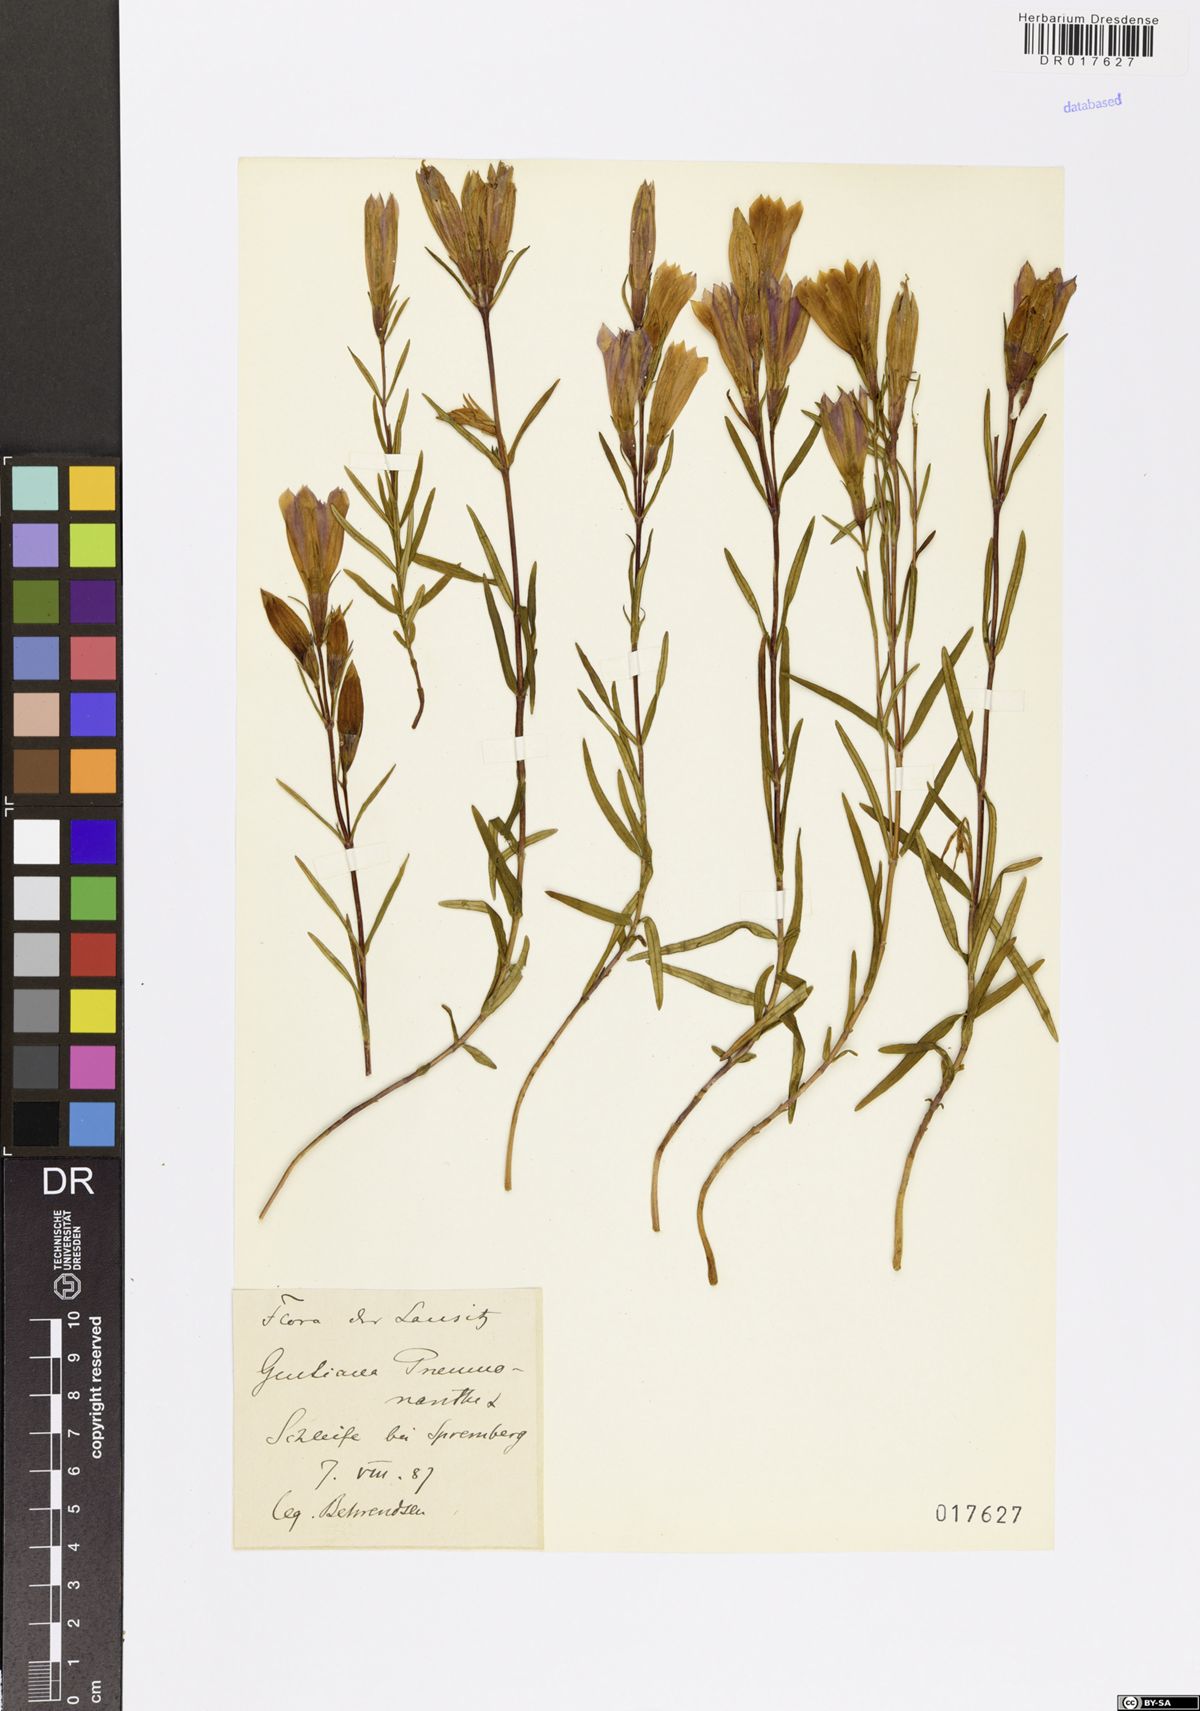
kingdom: Plantae
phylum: Tracheophyta
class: Magnoliopsida
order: Gentianales
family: Gentianaceae
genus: Gentiana
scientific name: Gentiana pneumonanthe
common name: Marsh gentian
